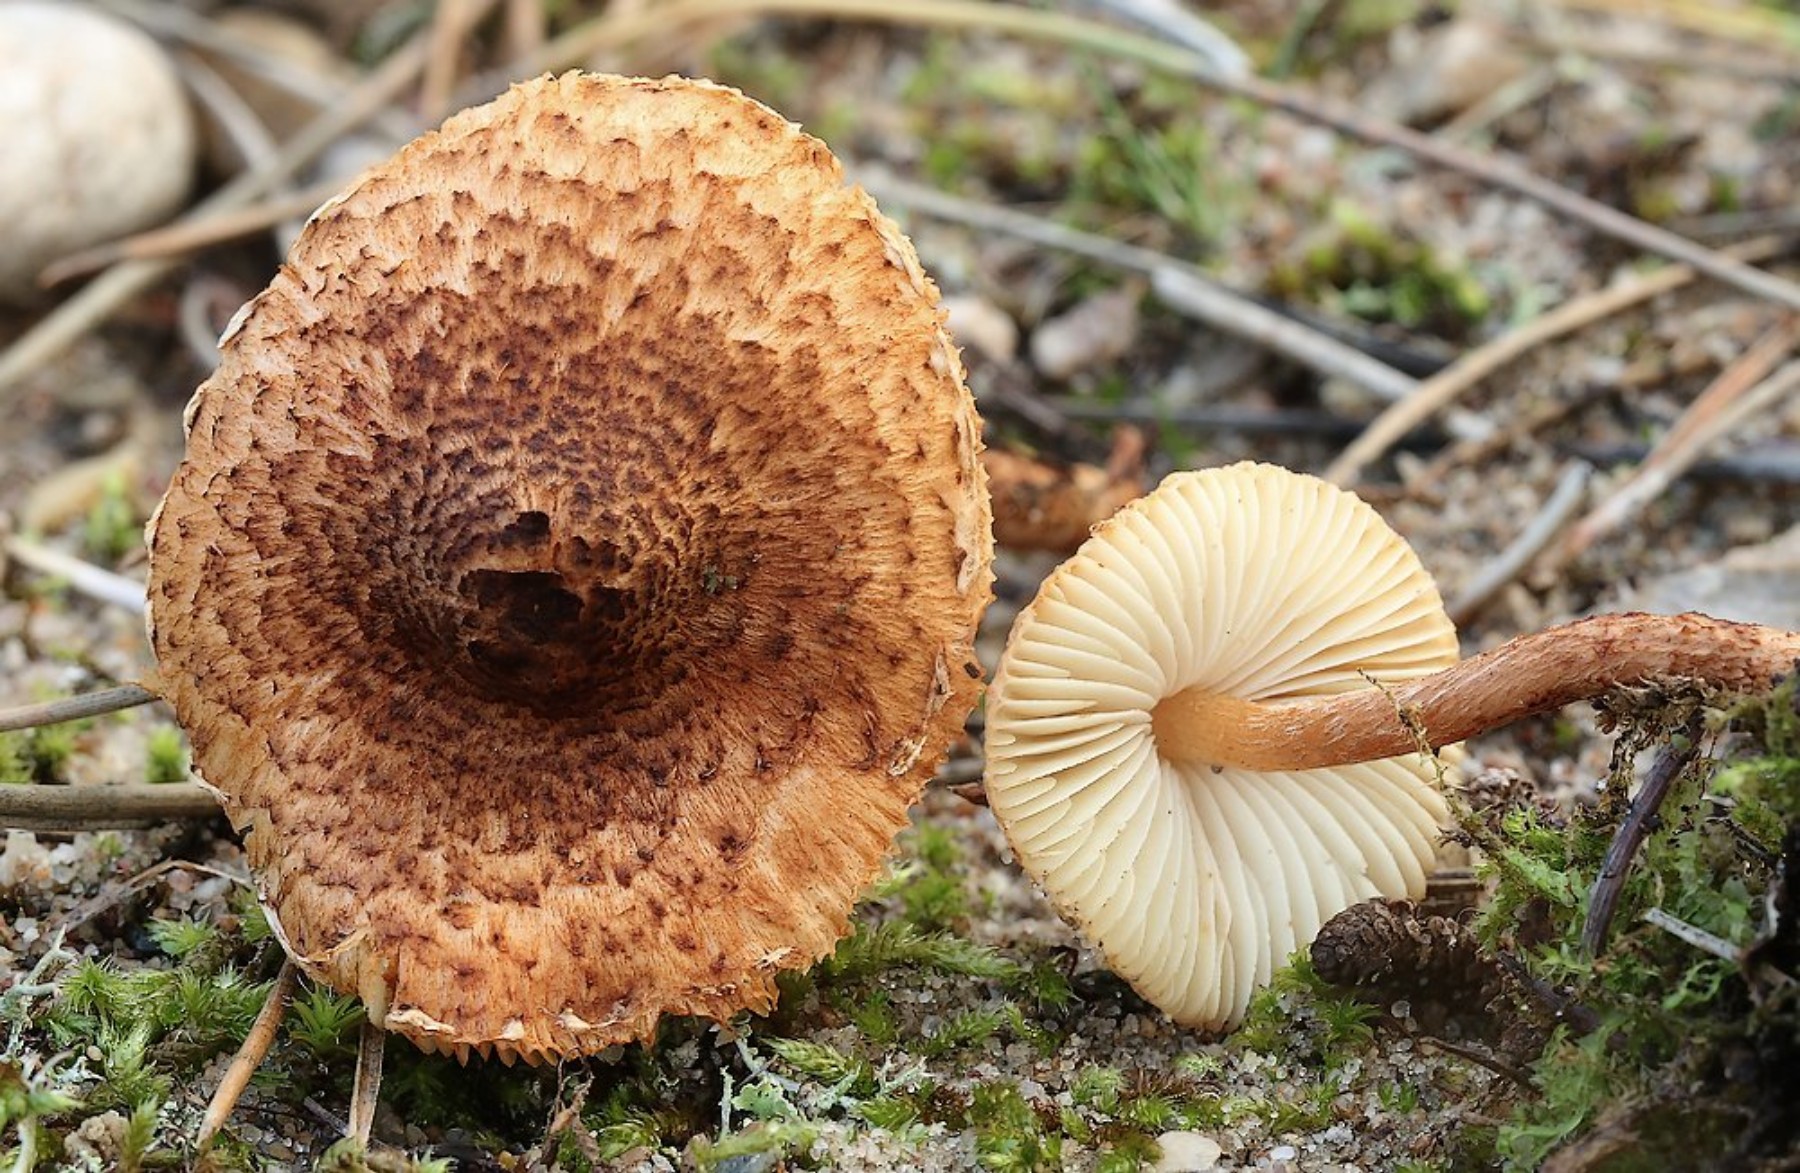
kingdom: Fungi
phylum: Basidiomycota
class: Agaricomycetes
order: Agaricales
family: Agaricaceae
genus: Lepiota
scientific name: Lepiota castanea
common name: kastaniebrun parasolhat
